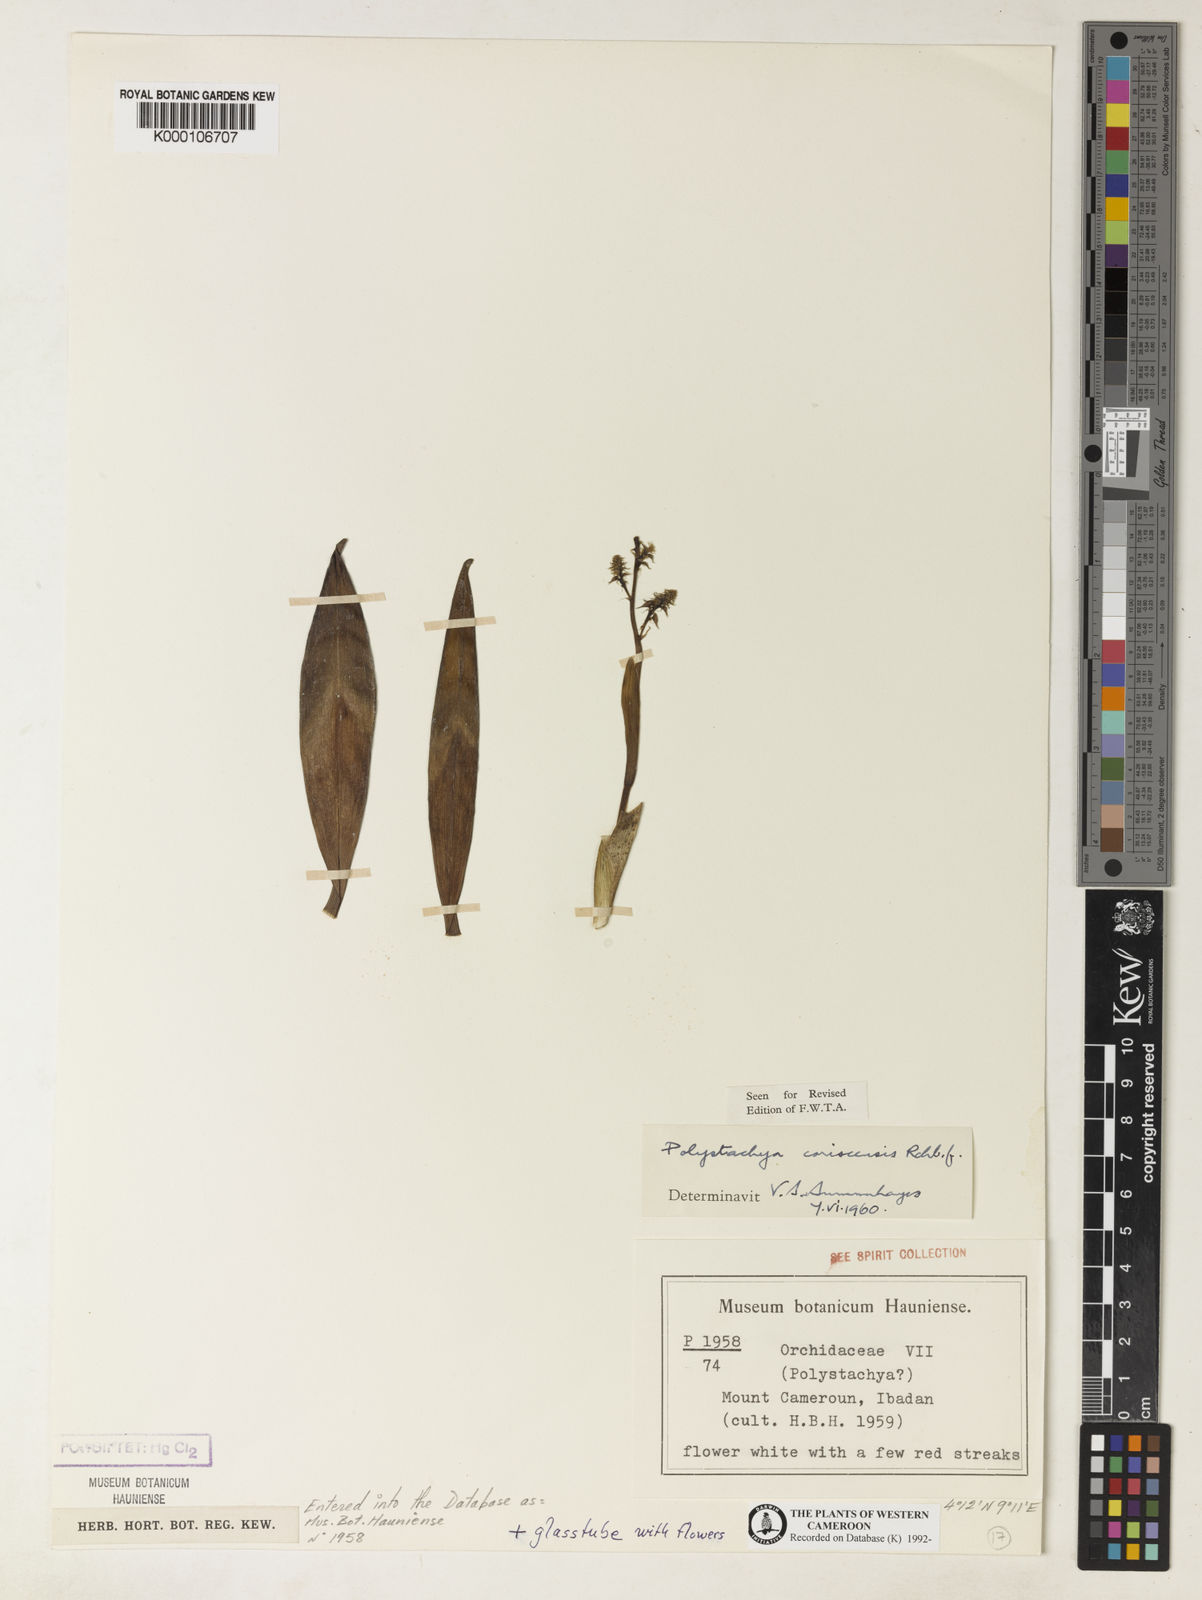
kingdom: Plantae
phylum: Tracheophyta
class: Liliopsida
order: Asparagales
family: Orchidaceae
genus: Polystachya
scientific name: Polystachya coriscensis
